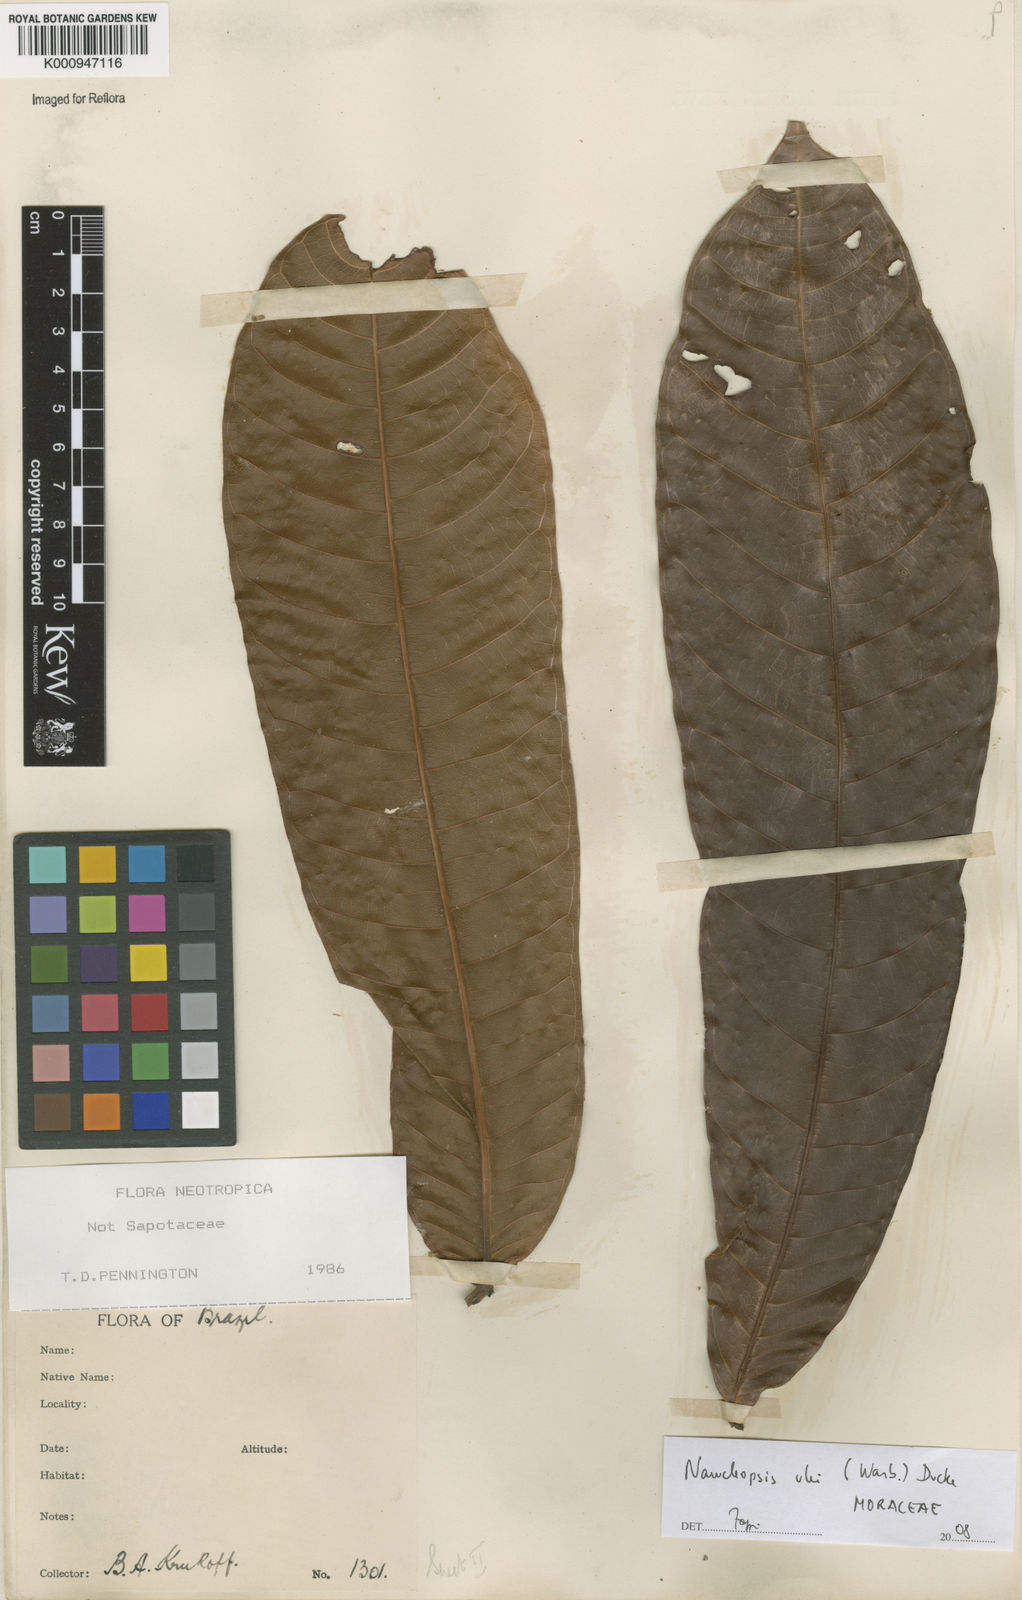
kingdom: Plantae
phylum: Tracheophyta
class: Magnoliopsida
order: Rosales
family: Moraceae
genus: Naucleopsis
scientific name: Naucleopsis ulei
